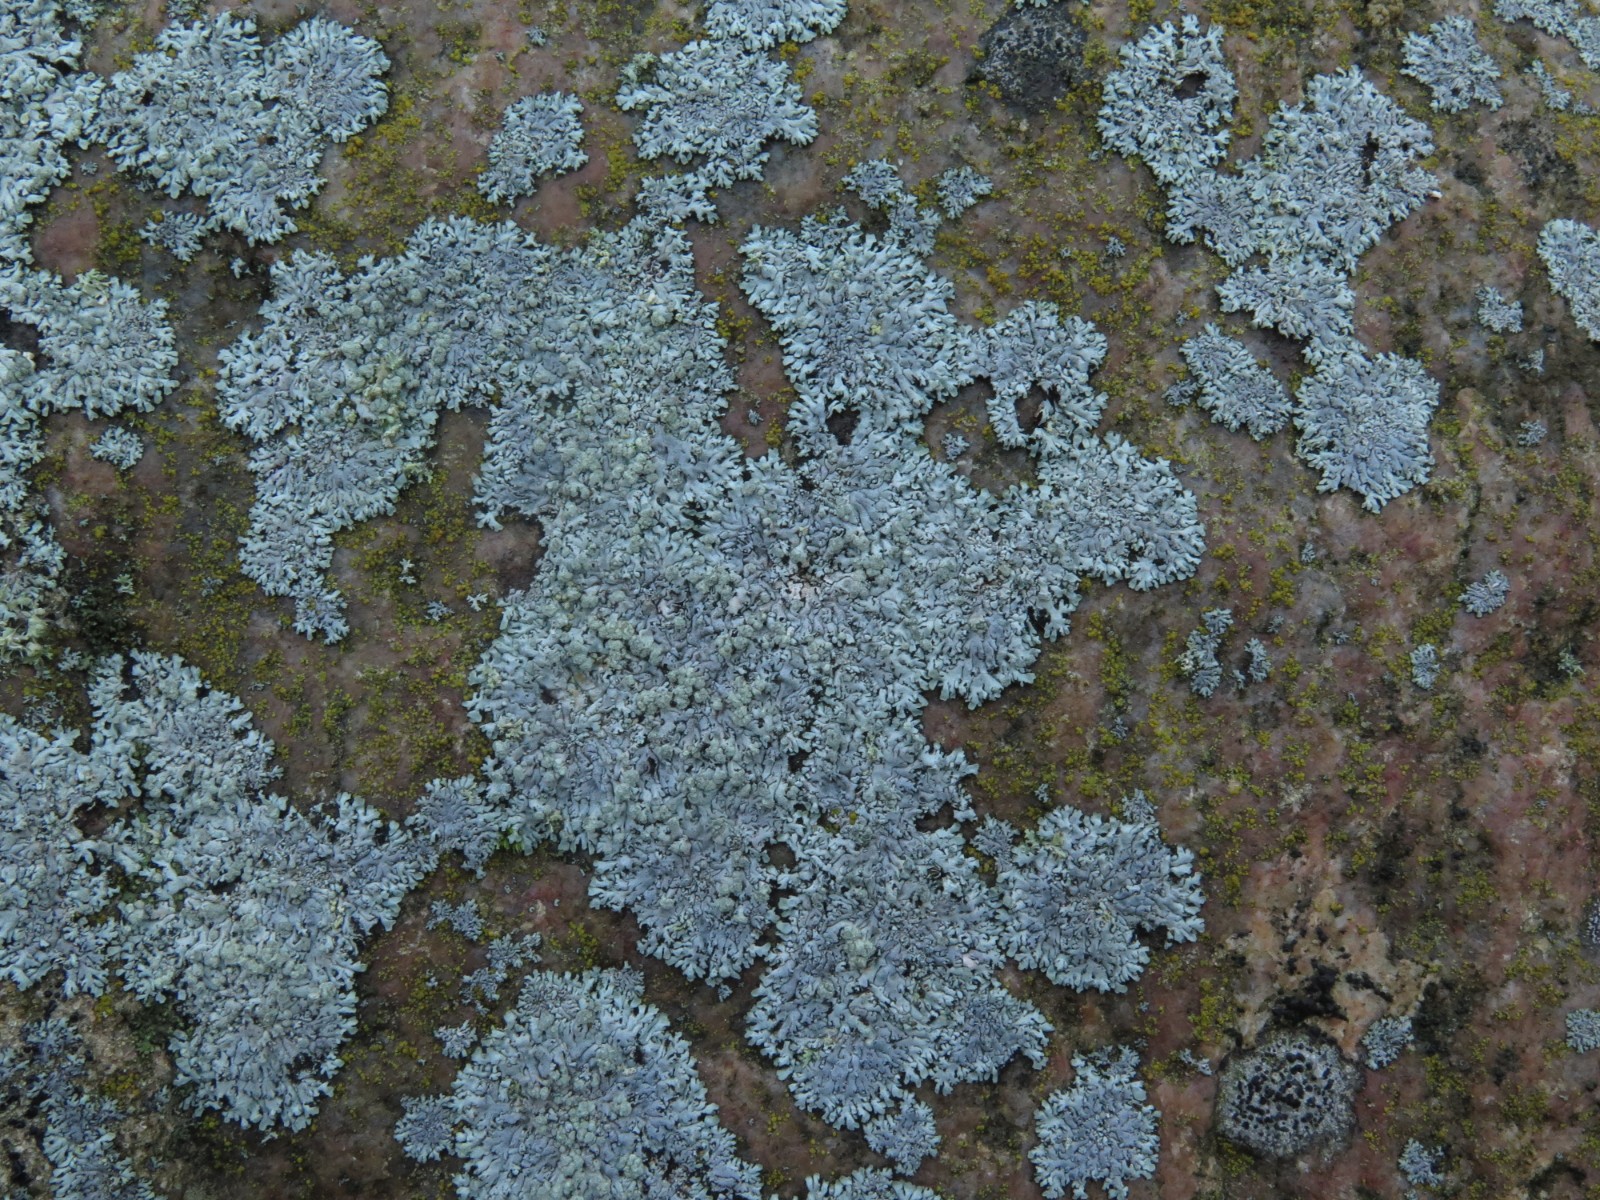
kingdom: Fungi
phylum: Ascomycota
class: Lecanoromycetes
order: Caliciales
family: Physciaceae
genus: Physcia
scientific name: Physcia caesia
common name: blågrå rosetlav
